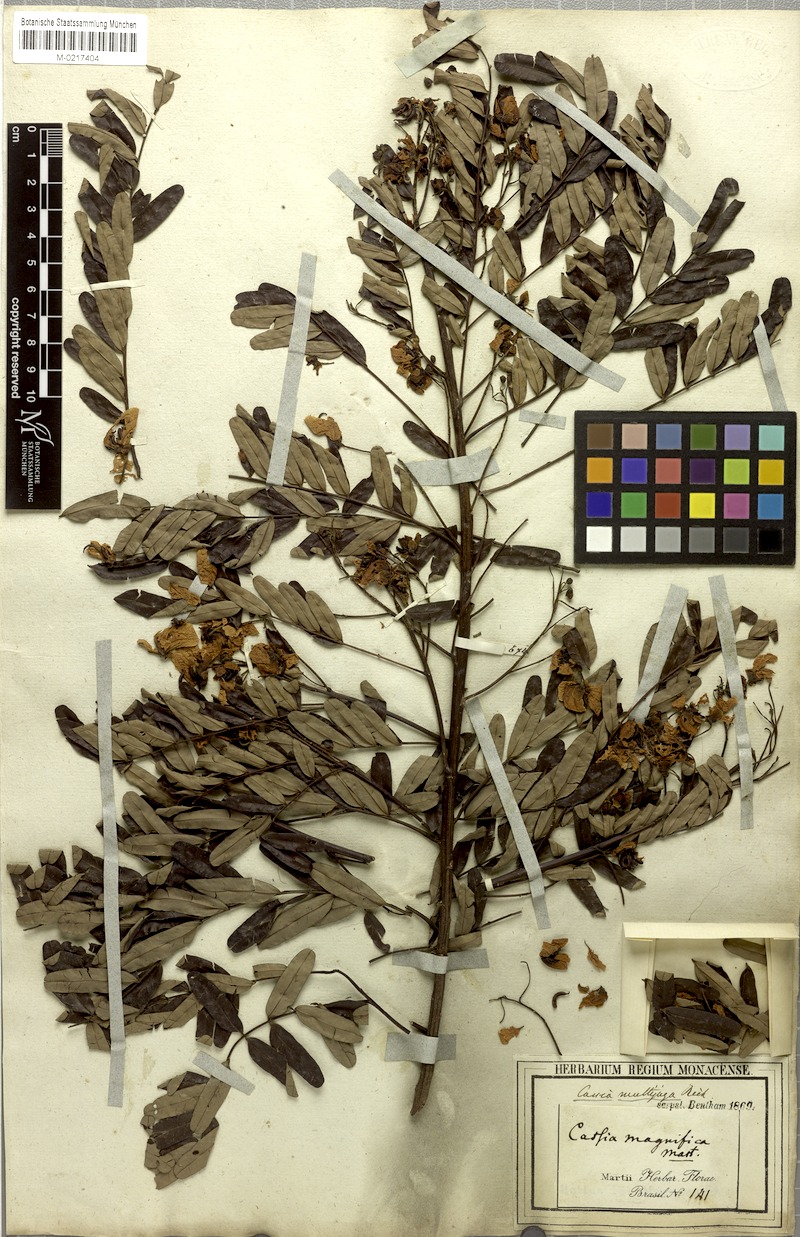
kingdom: Plantae
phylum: Tracheophyta
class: Magnoliopsida
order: Fabales
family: Fabaceae
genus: Senna
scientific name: Senna multijuga
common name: False sicklepod
